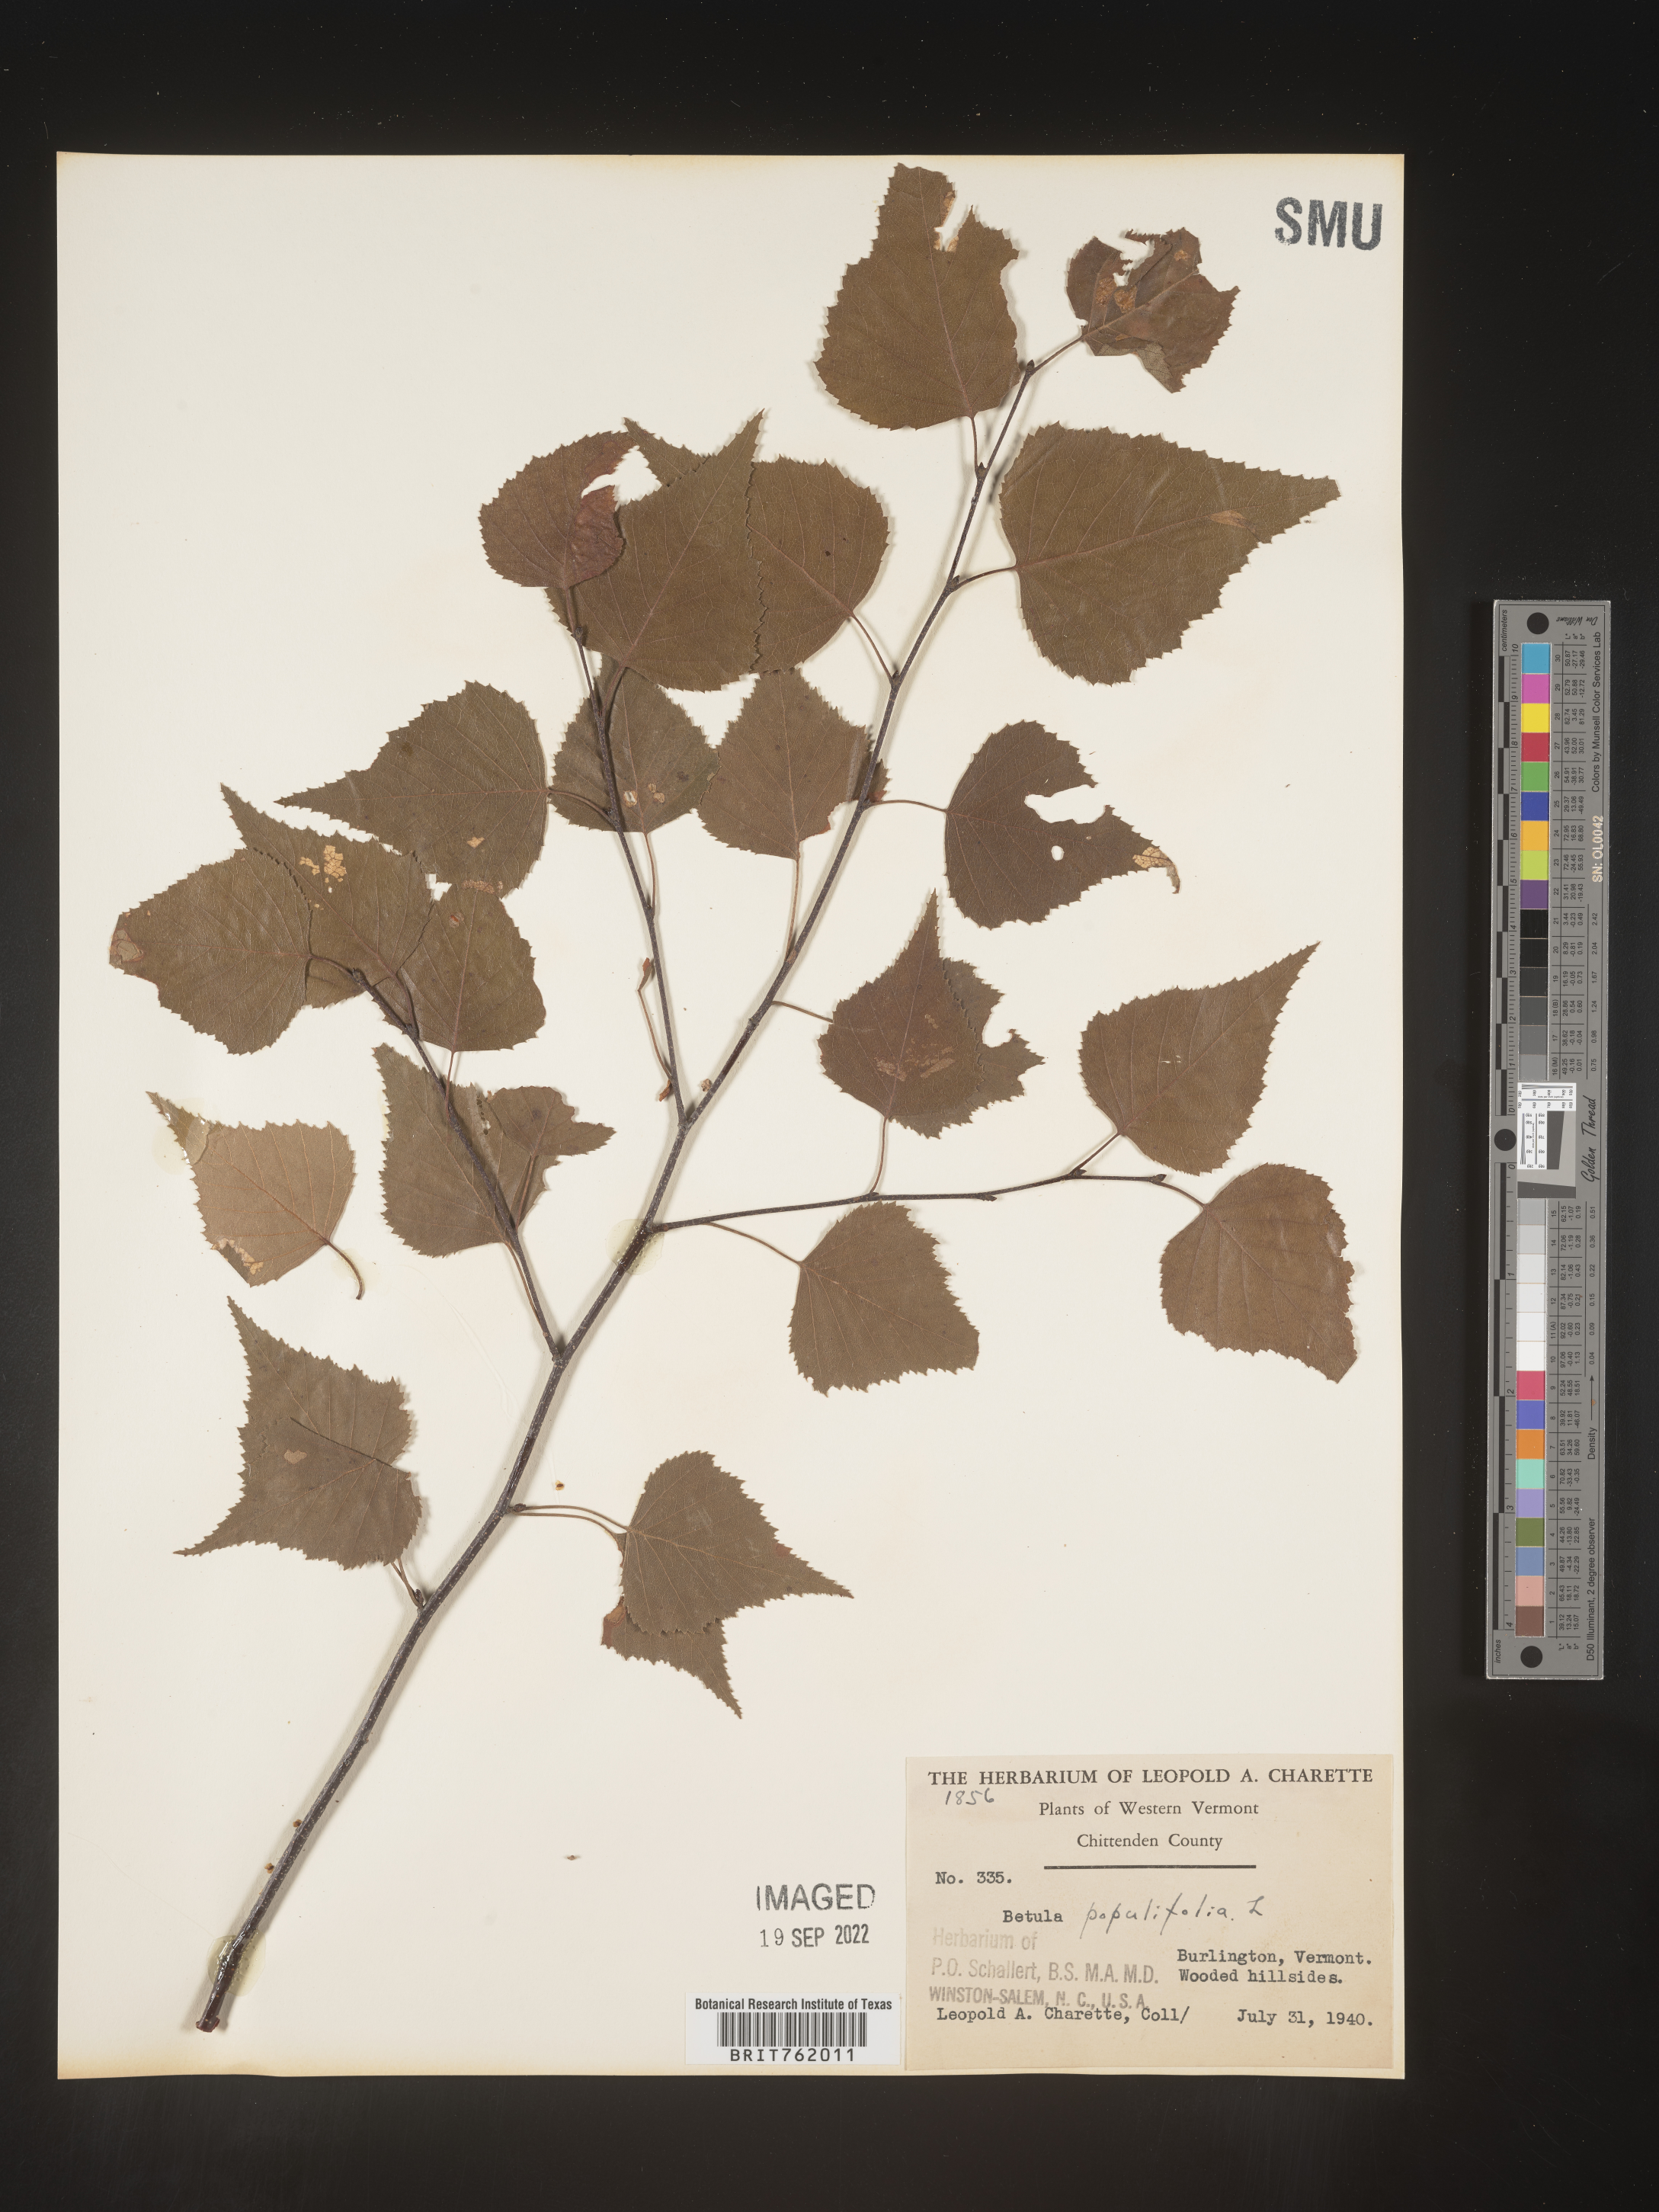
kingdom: Plantae
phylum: Tracheophyta
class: Magnoliopsida
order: Fagales
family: Betulaceae
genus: Betula
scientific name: Betula populifolia
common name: Fire birch
